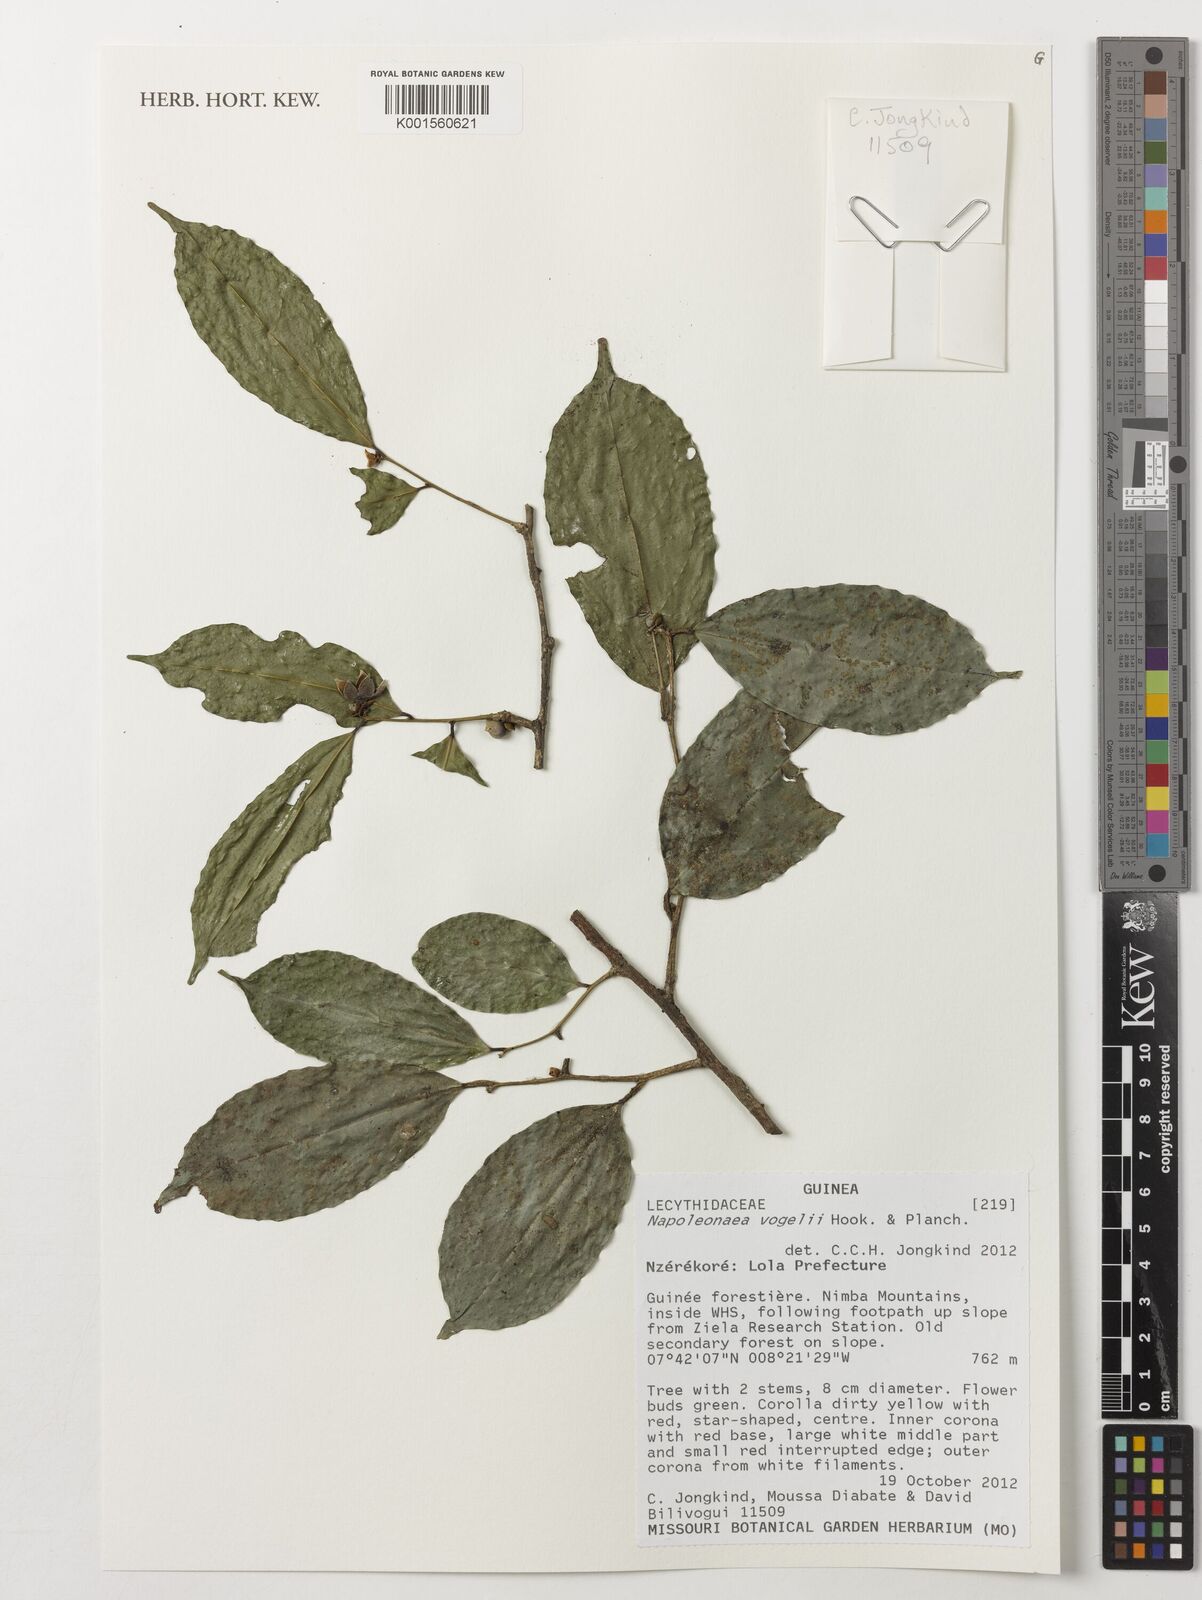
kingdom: Plantae
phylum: Tracheophyta
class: Magnoliopsida
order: Ericales
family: Lecythidaceae
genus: Napoleonaea
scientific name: Napoleonaea vogelii
